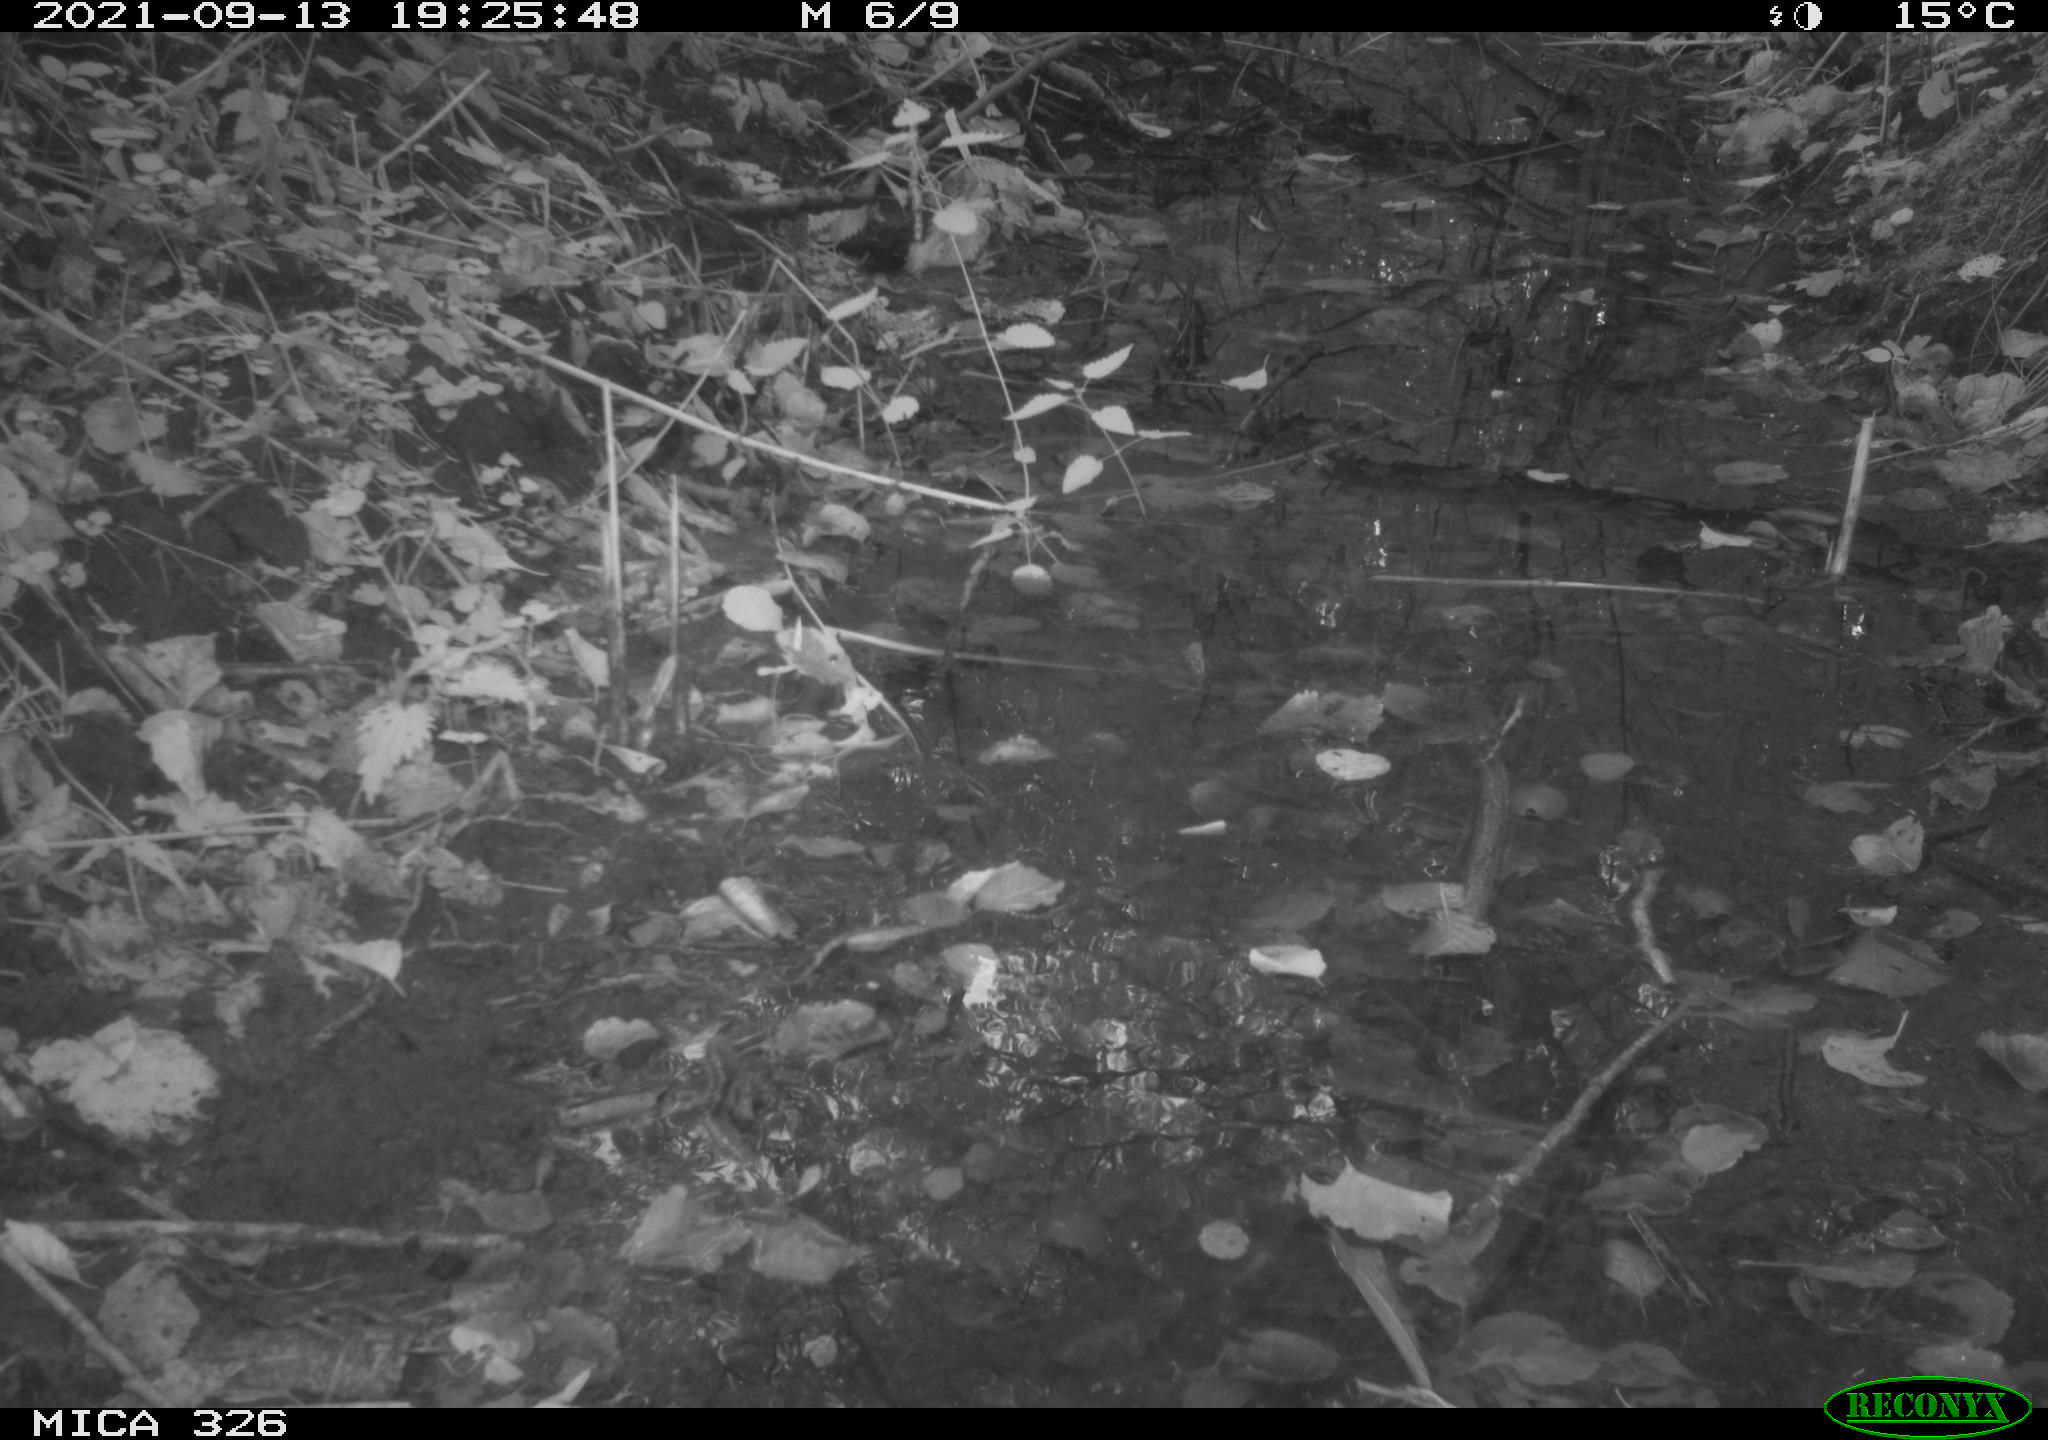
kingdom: Animalia
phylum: Chordata
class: Aves
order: Passeriformes
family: Muscicapidae
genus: Erithacus
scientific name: Erithacus rubecula
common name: European robin
